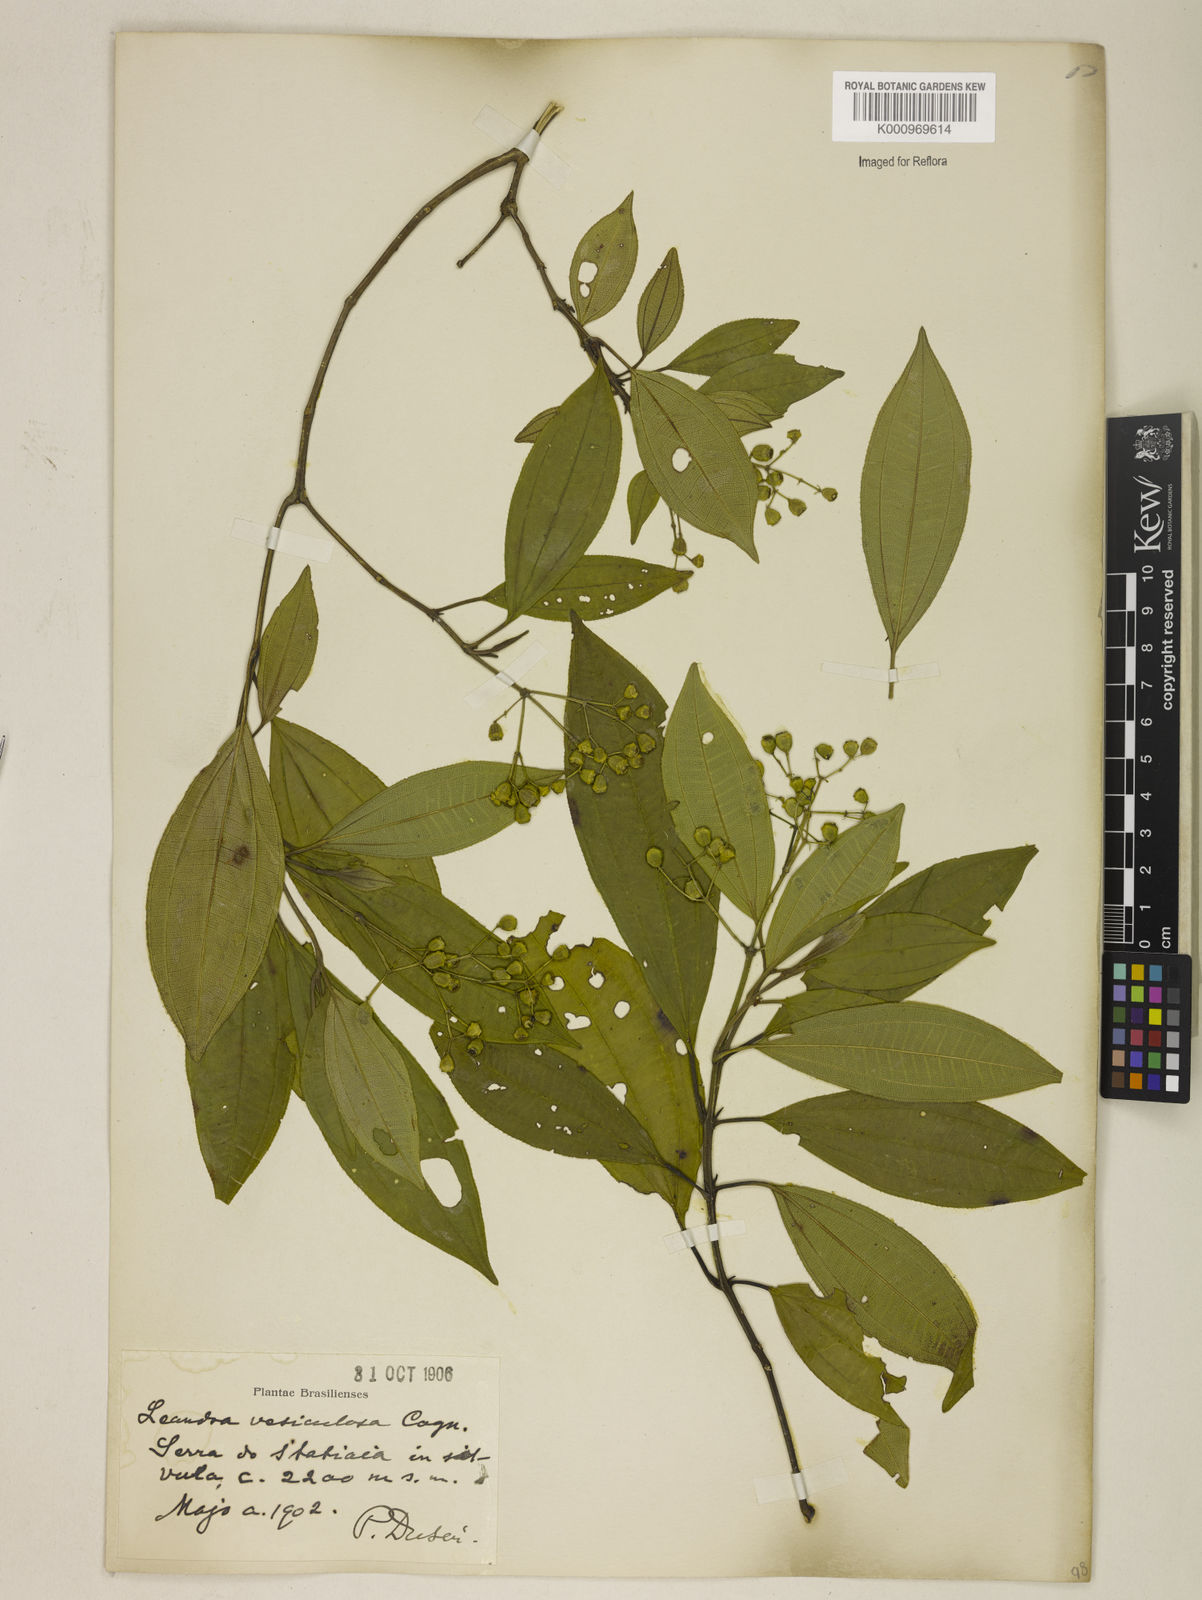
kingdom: Plantae
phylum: Tracheophyta
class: Magnoliopsida
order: Myrtales
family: Melastomataceae
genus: Miconia
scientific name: Miconia vesiculosa
